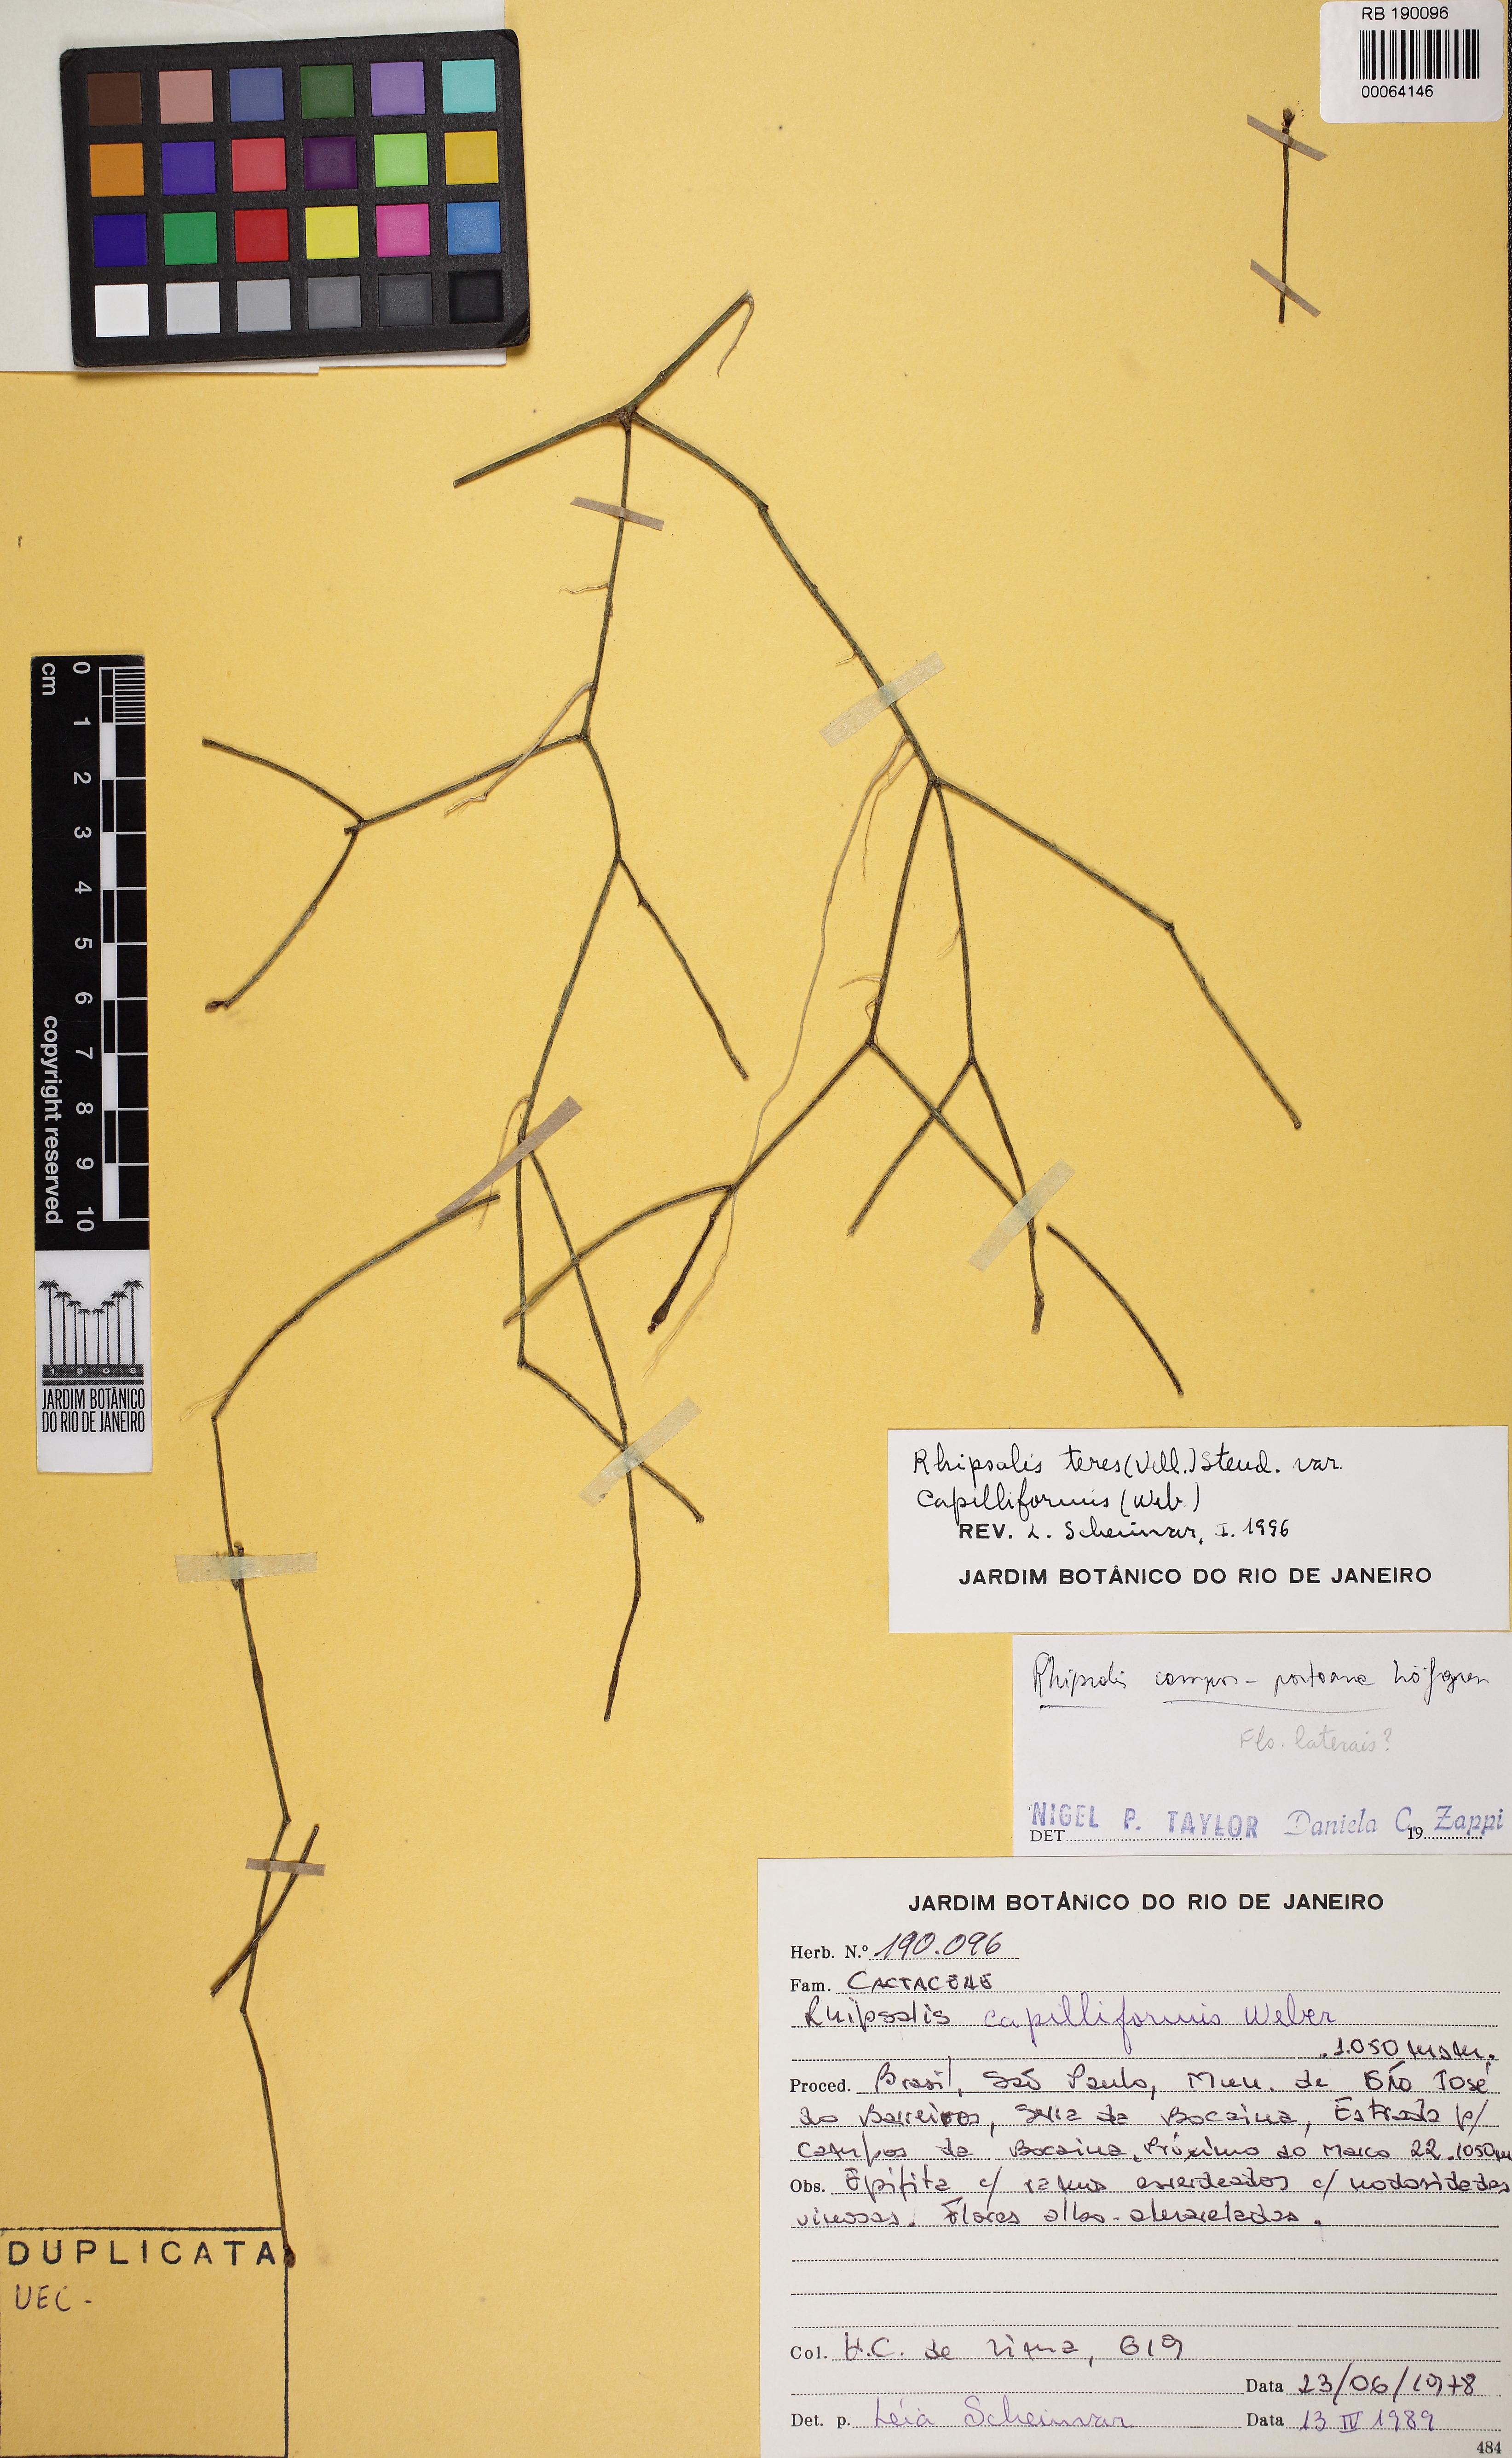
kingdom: Plantae
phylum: Tracheophyta
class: Magnoliopsida
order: Caryophyllales
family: Cactaceae
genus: Rhipsalis
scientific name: Rhipsalis juengeri
